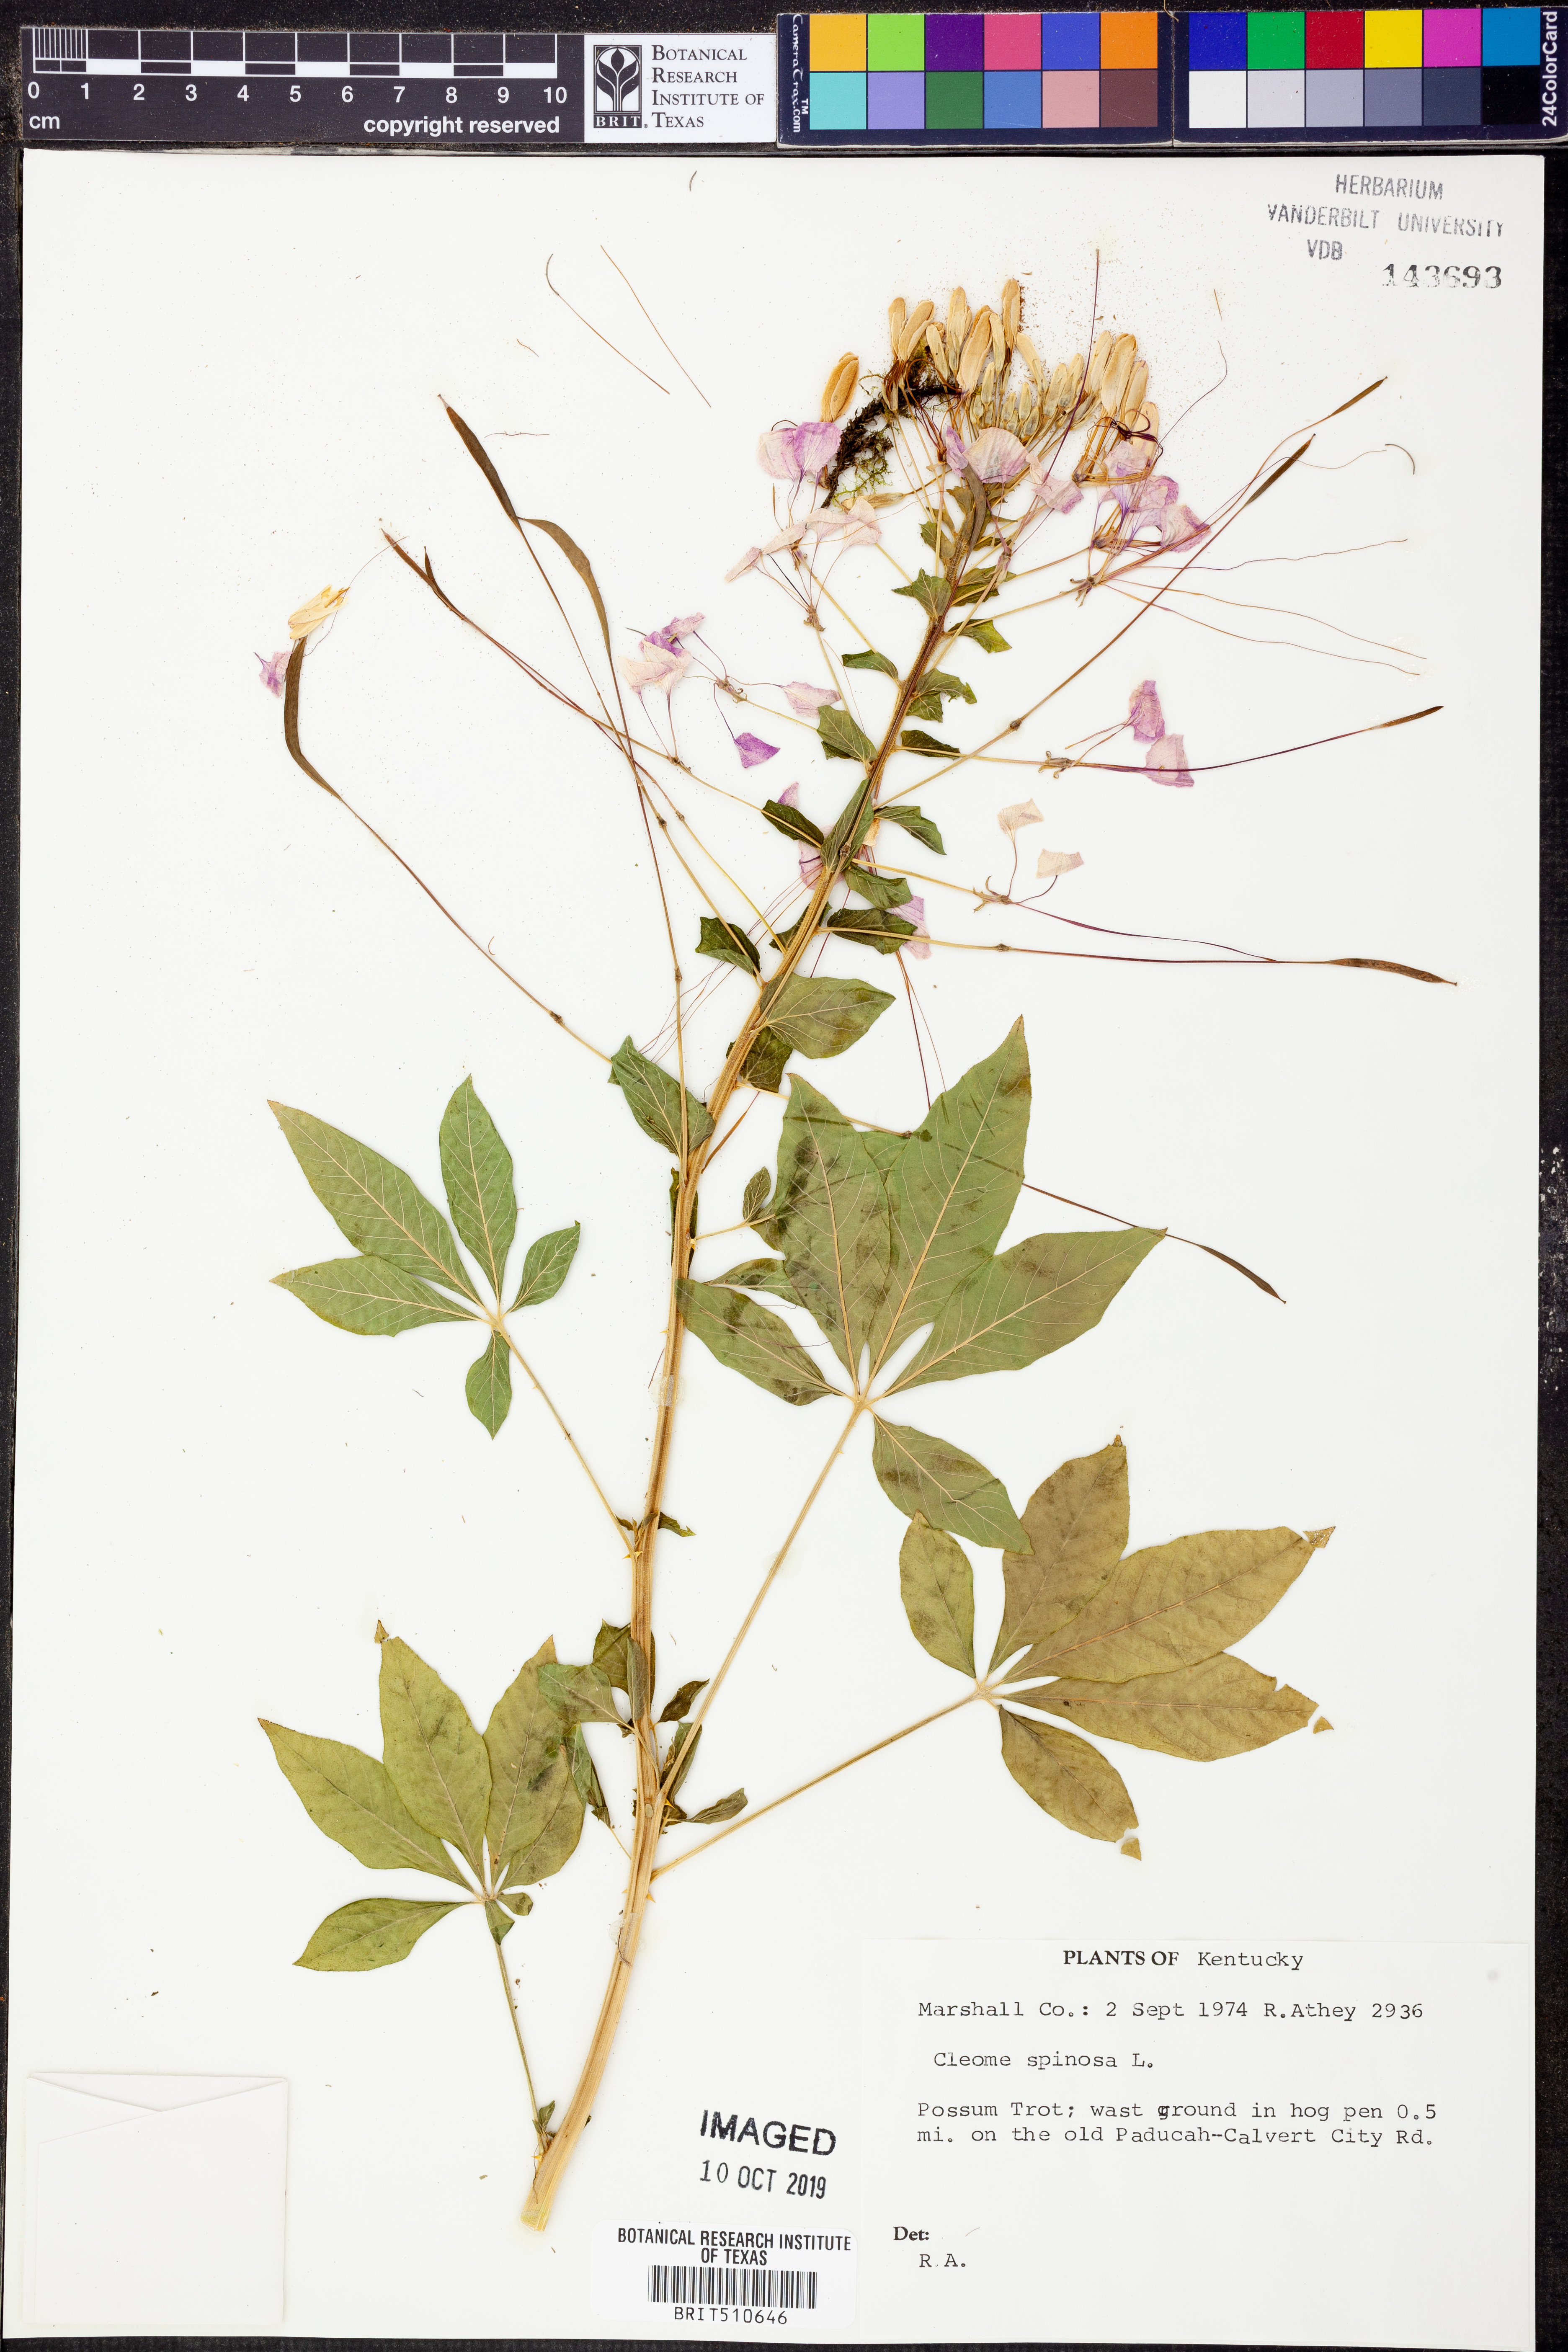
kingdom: Plantae
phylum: Tracheophyta
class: Magnoliopsida
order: Brassicales
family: Cleomaceae
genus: Tarenaya
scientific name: Tarenaya spinosa
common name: Spiny spiderflower
